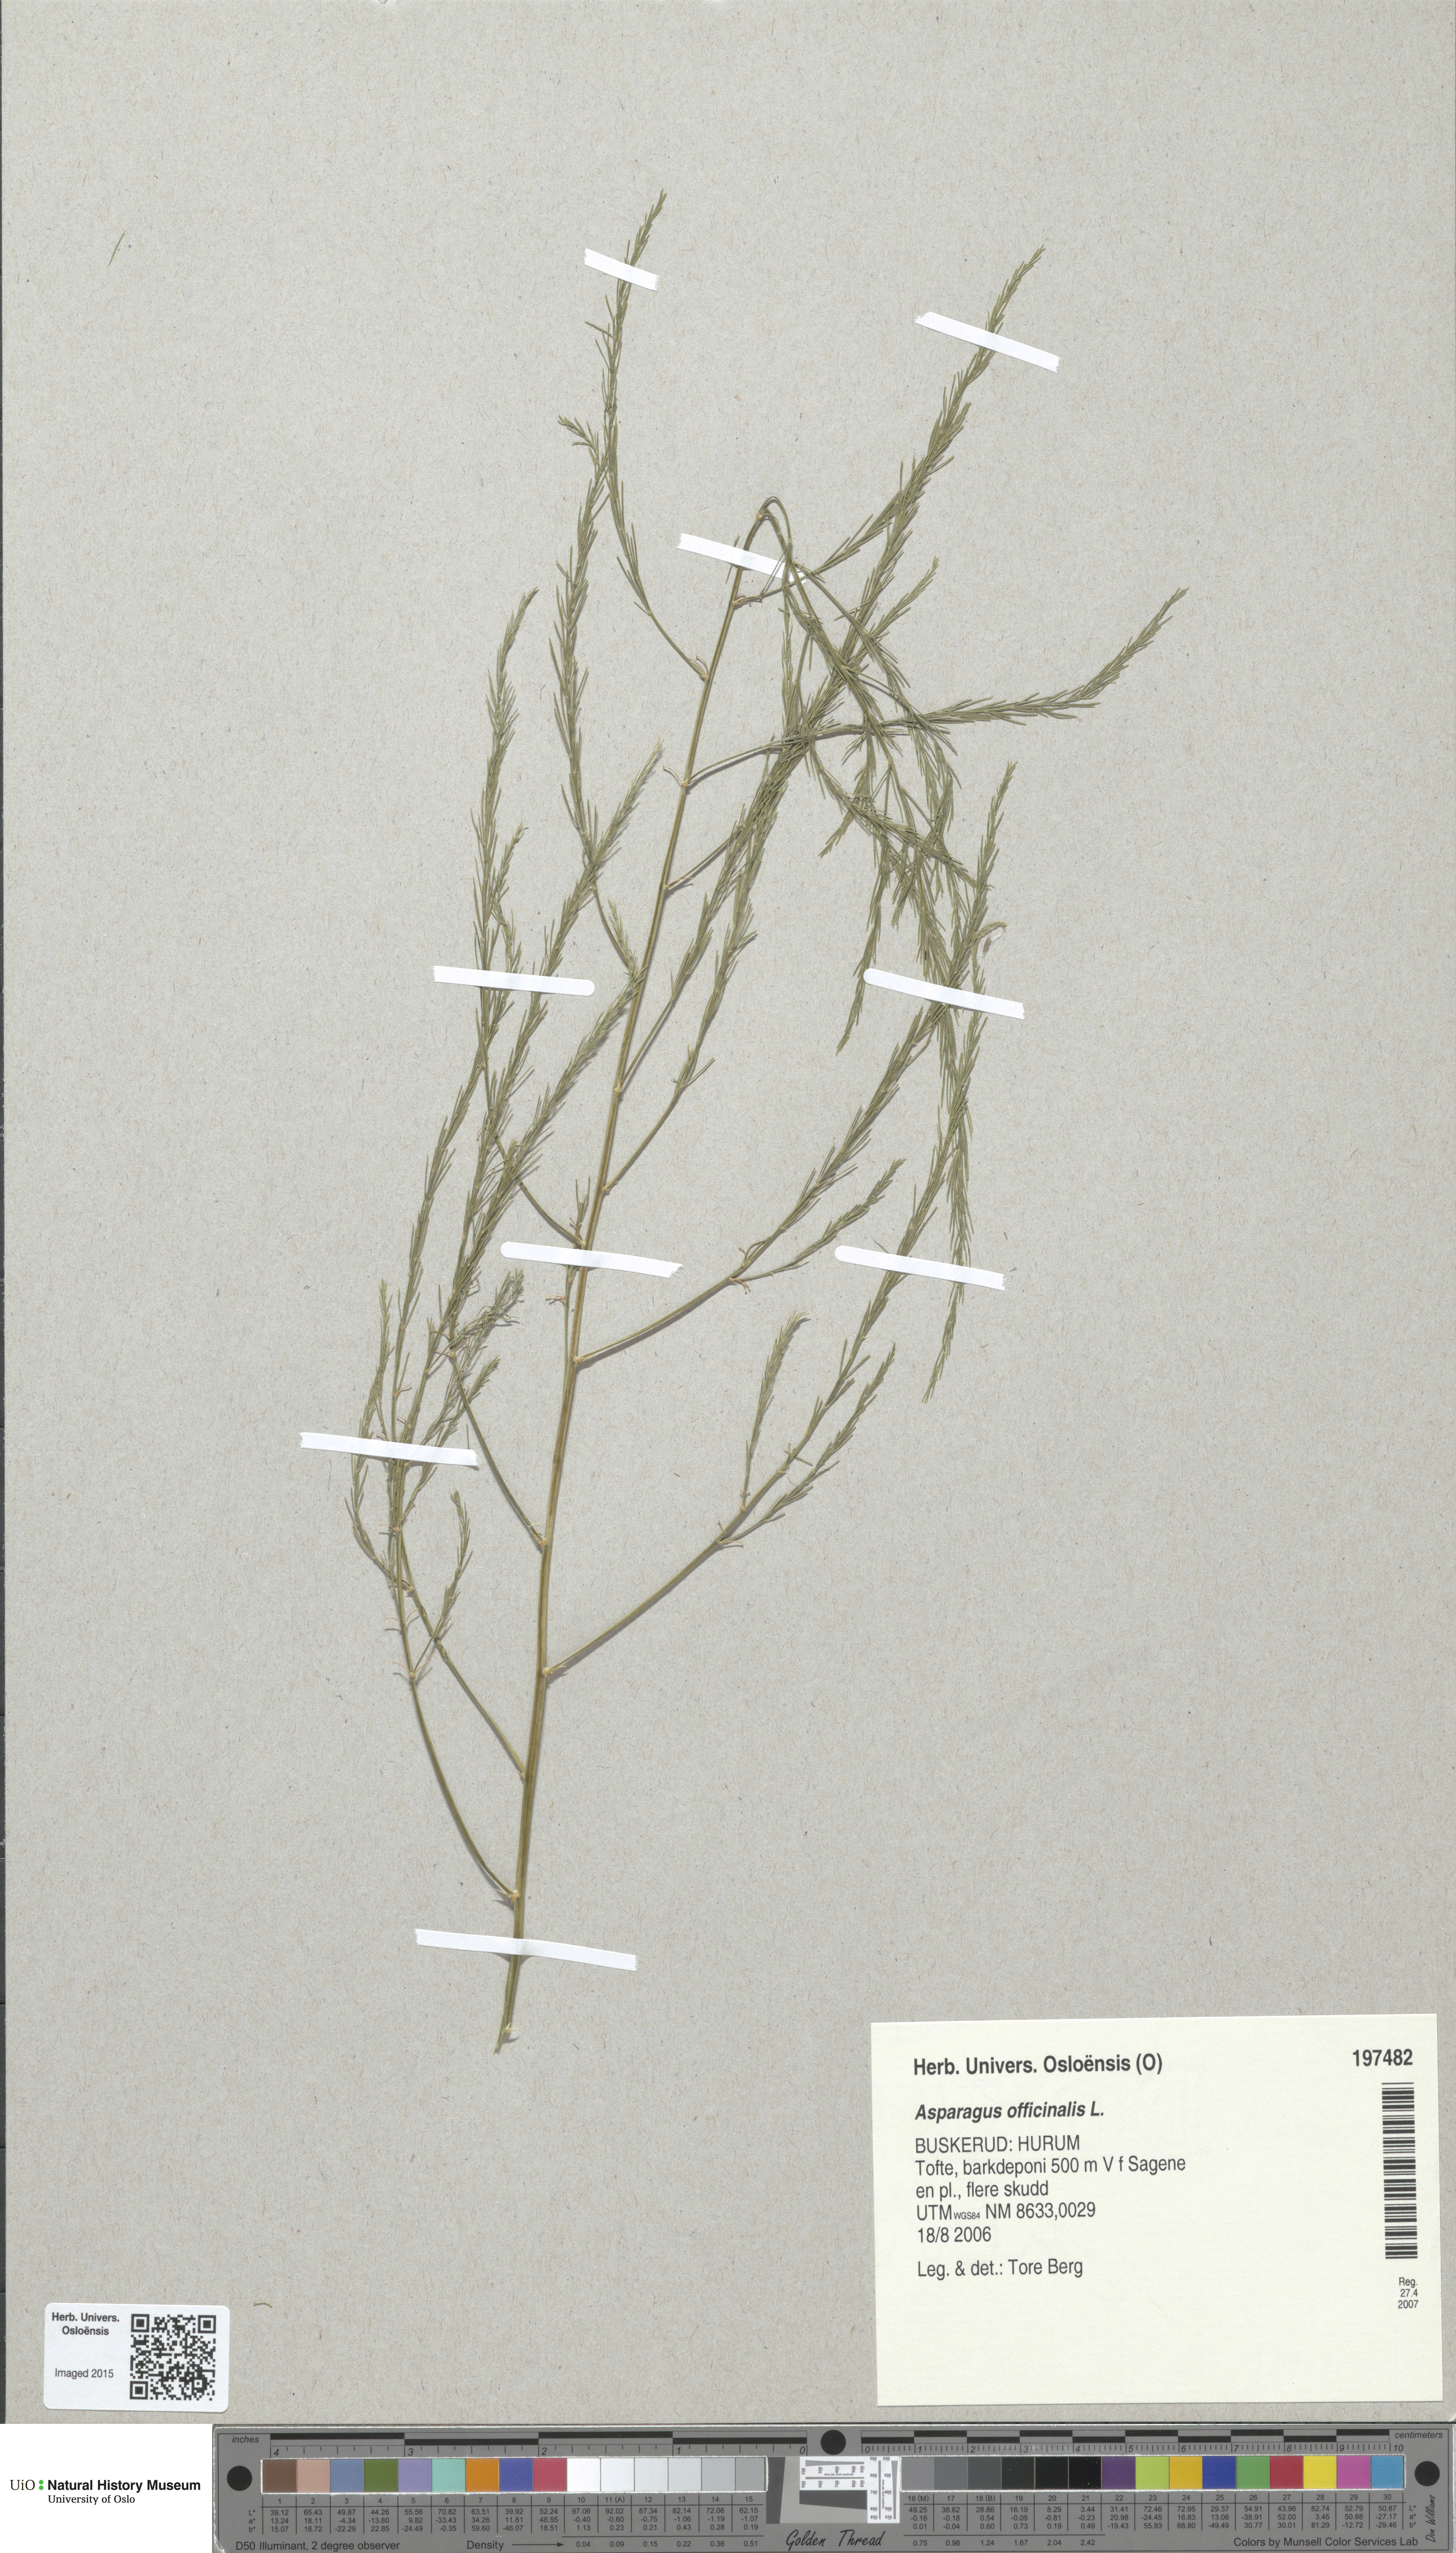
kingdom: Plantae
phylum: Tracheophyta
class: Liliopsida
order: Asparagales
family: Asparagaceae
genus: Asparagus
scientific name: Asparagus officinalis
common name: Garden asparagus
